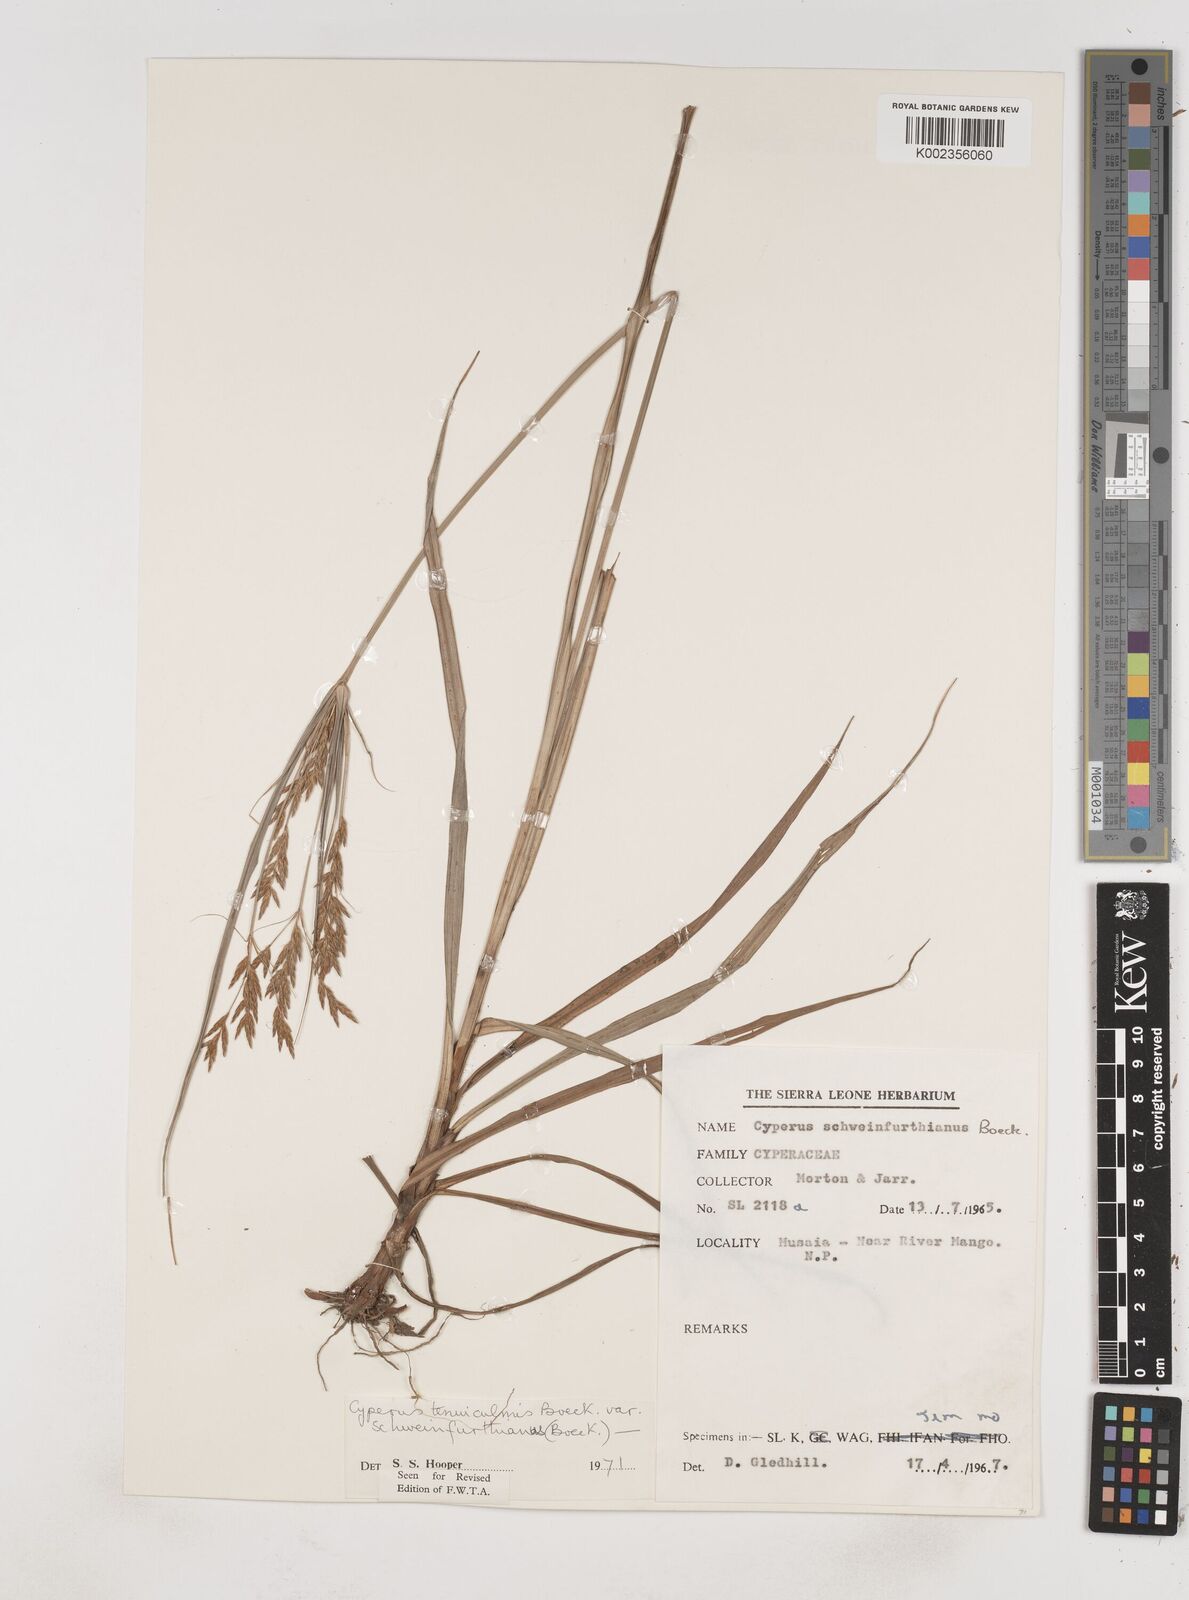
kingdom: Plantae
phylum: Tracheophyta
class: Liliopsida
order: Poales
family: Cyperaceae
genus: Cyperus
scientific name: Cyperus tenuiculmis
